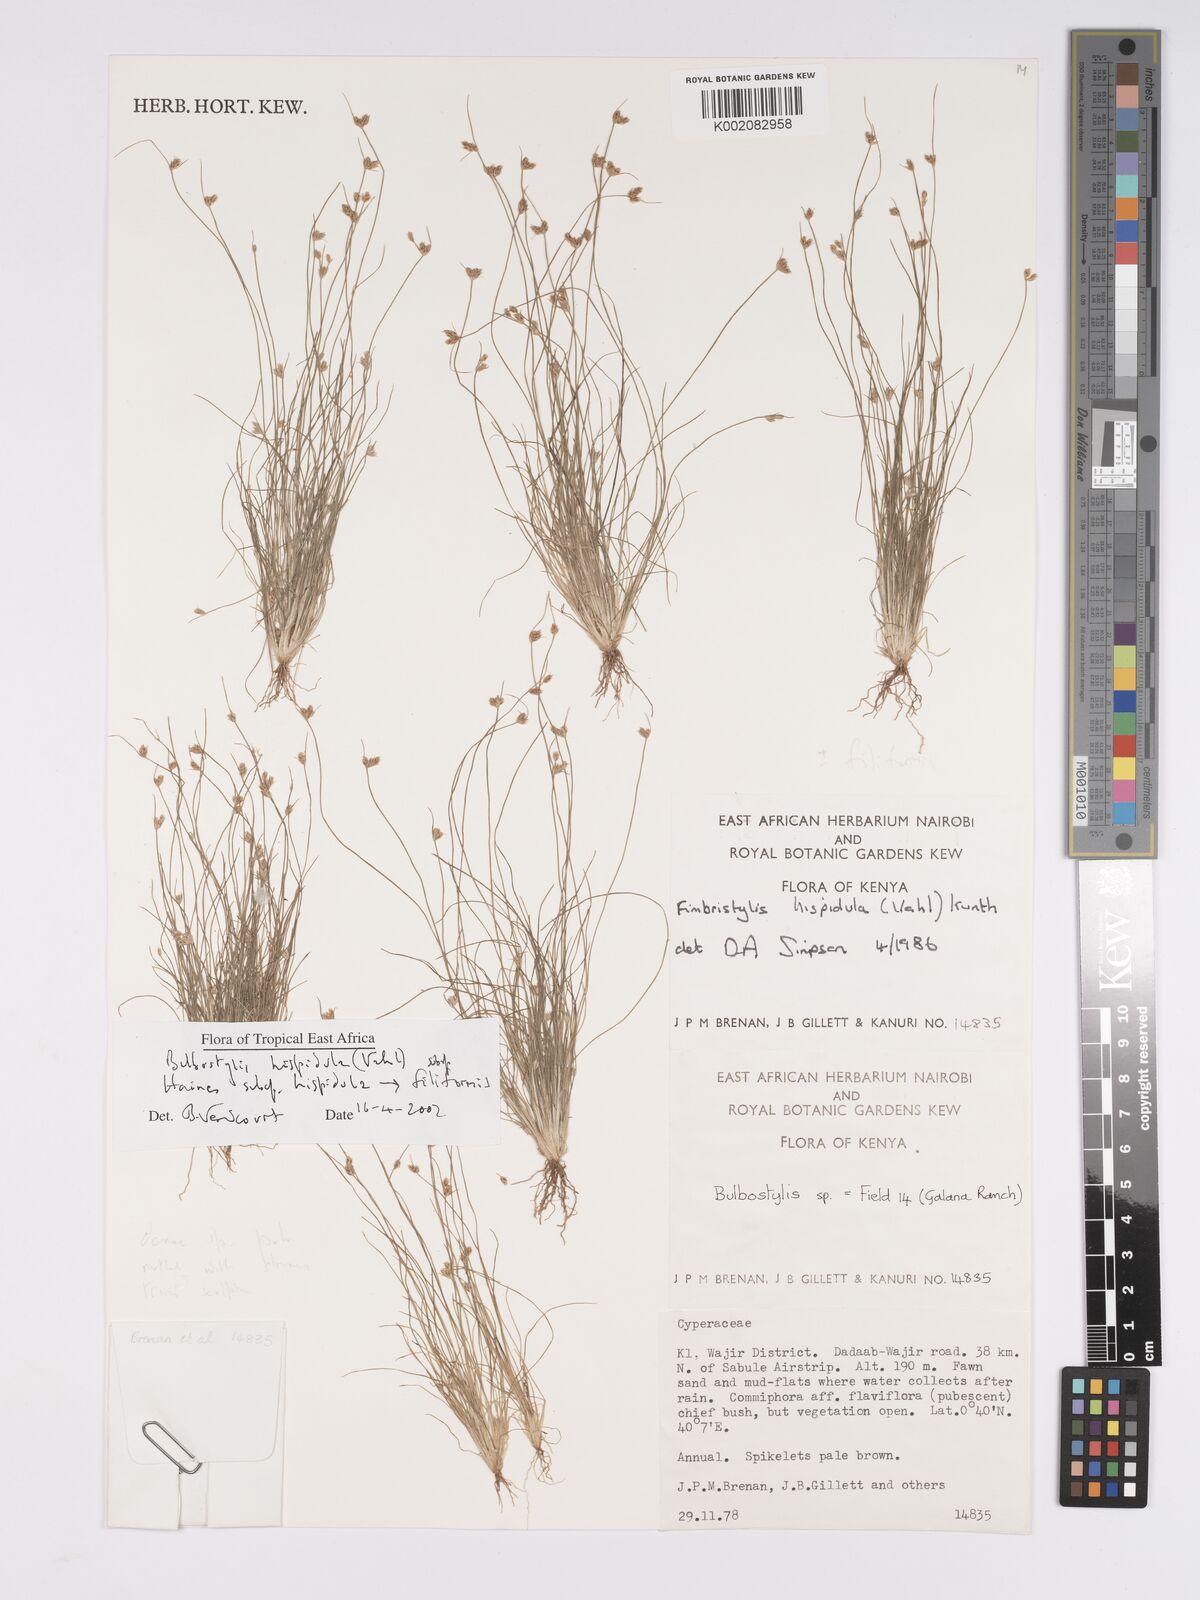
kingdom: Plantae
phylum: Tracheophyta
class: Liliopsida
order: Poales
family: Cyperaceae
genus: Bulbostylis
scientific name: Bulbostylis hispidula
